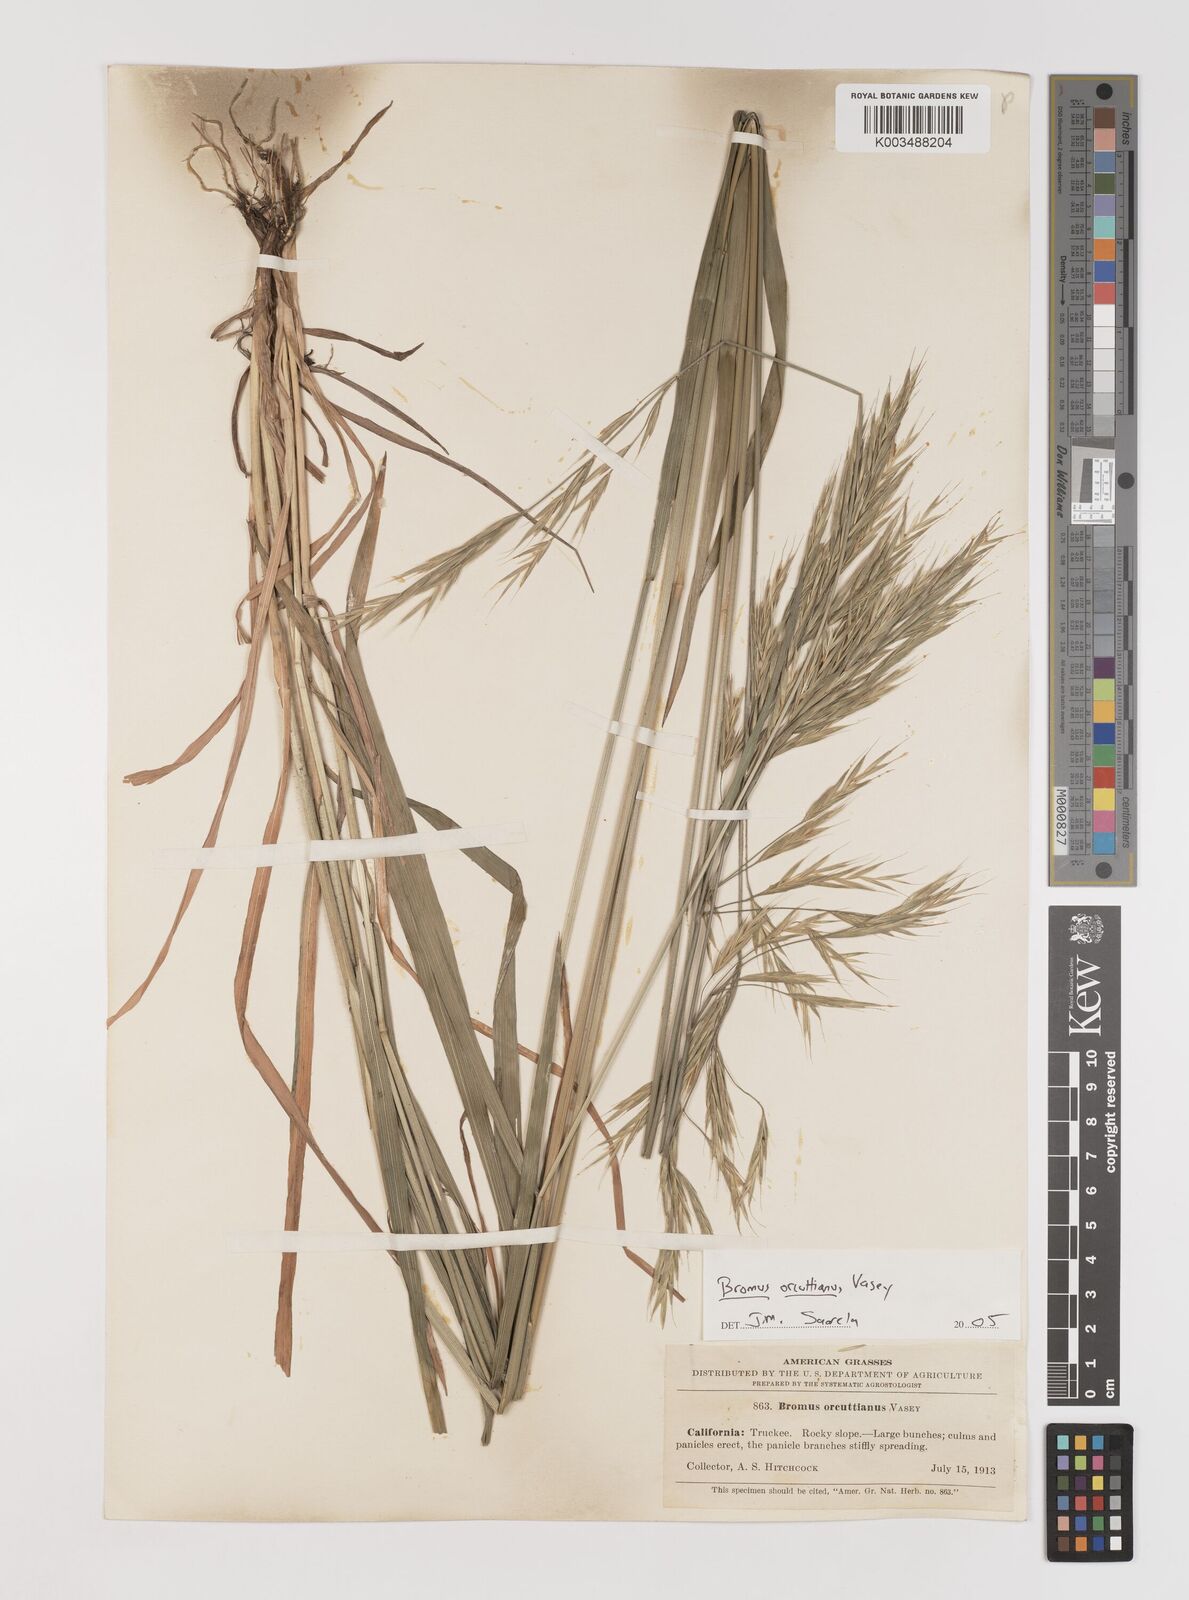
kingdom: Plantae
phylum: Tracheophyta
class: Liliopsida
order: Poales
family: Poaceae
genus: Bromus
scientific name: Bromus orcuttianus
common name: Orcutt's brome
